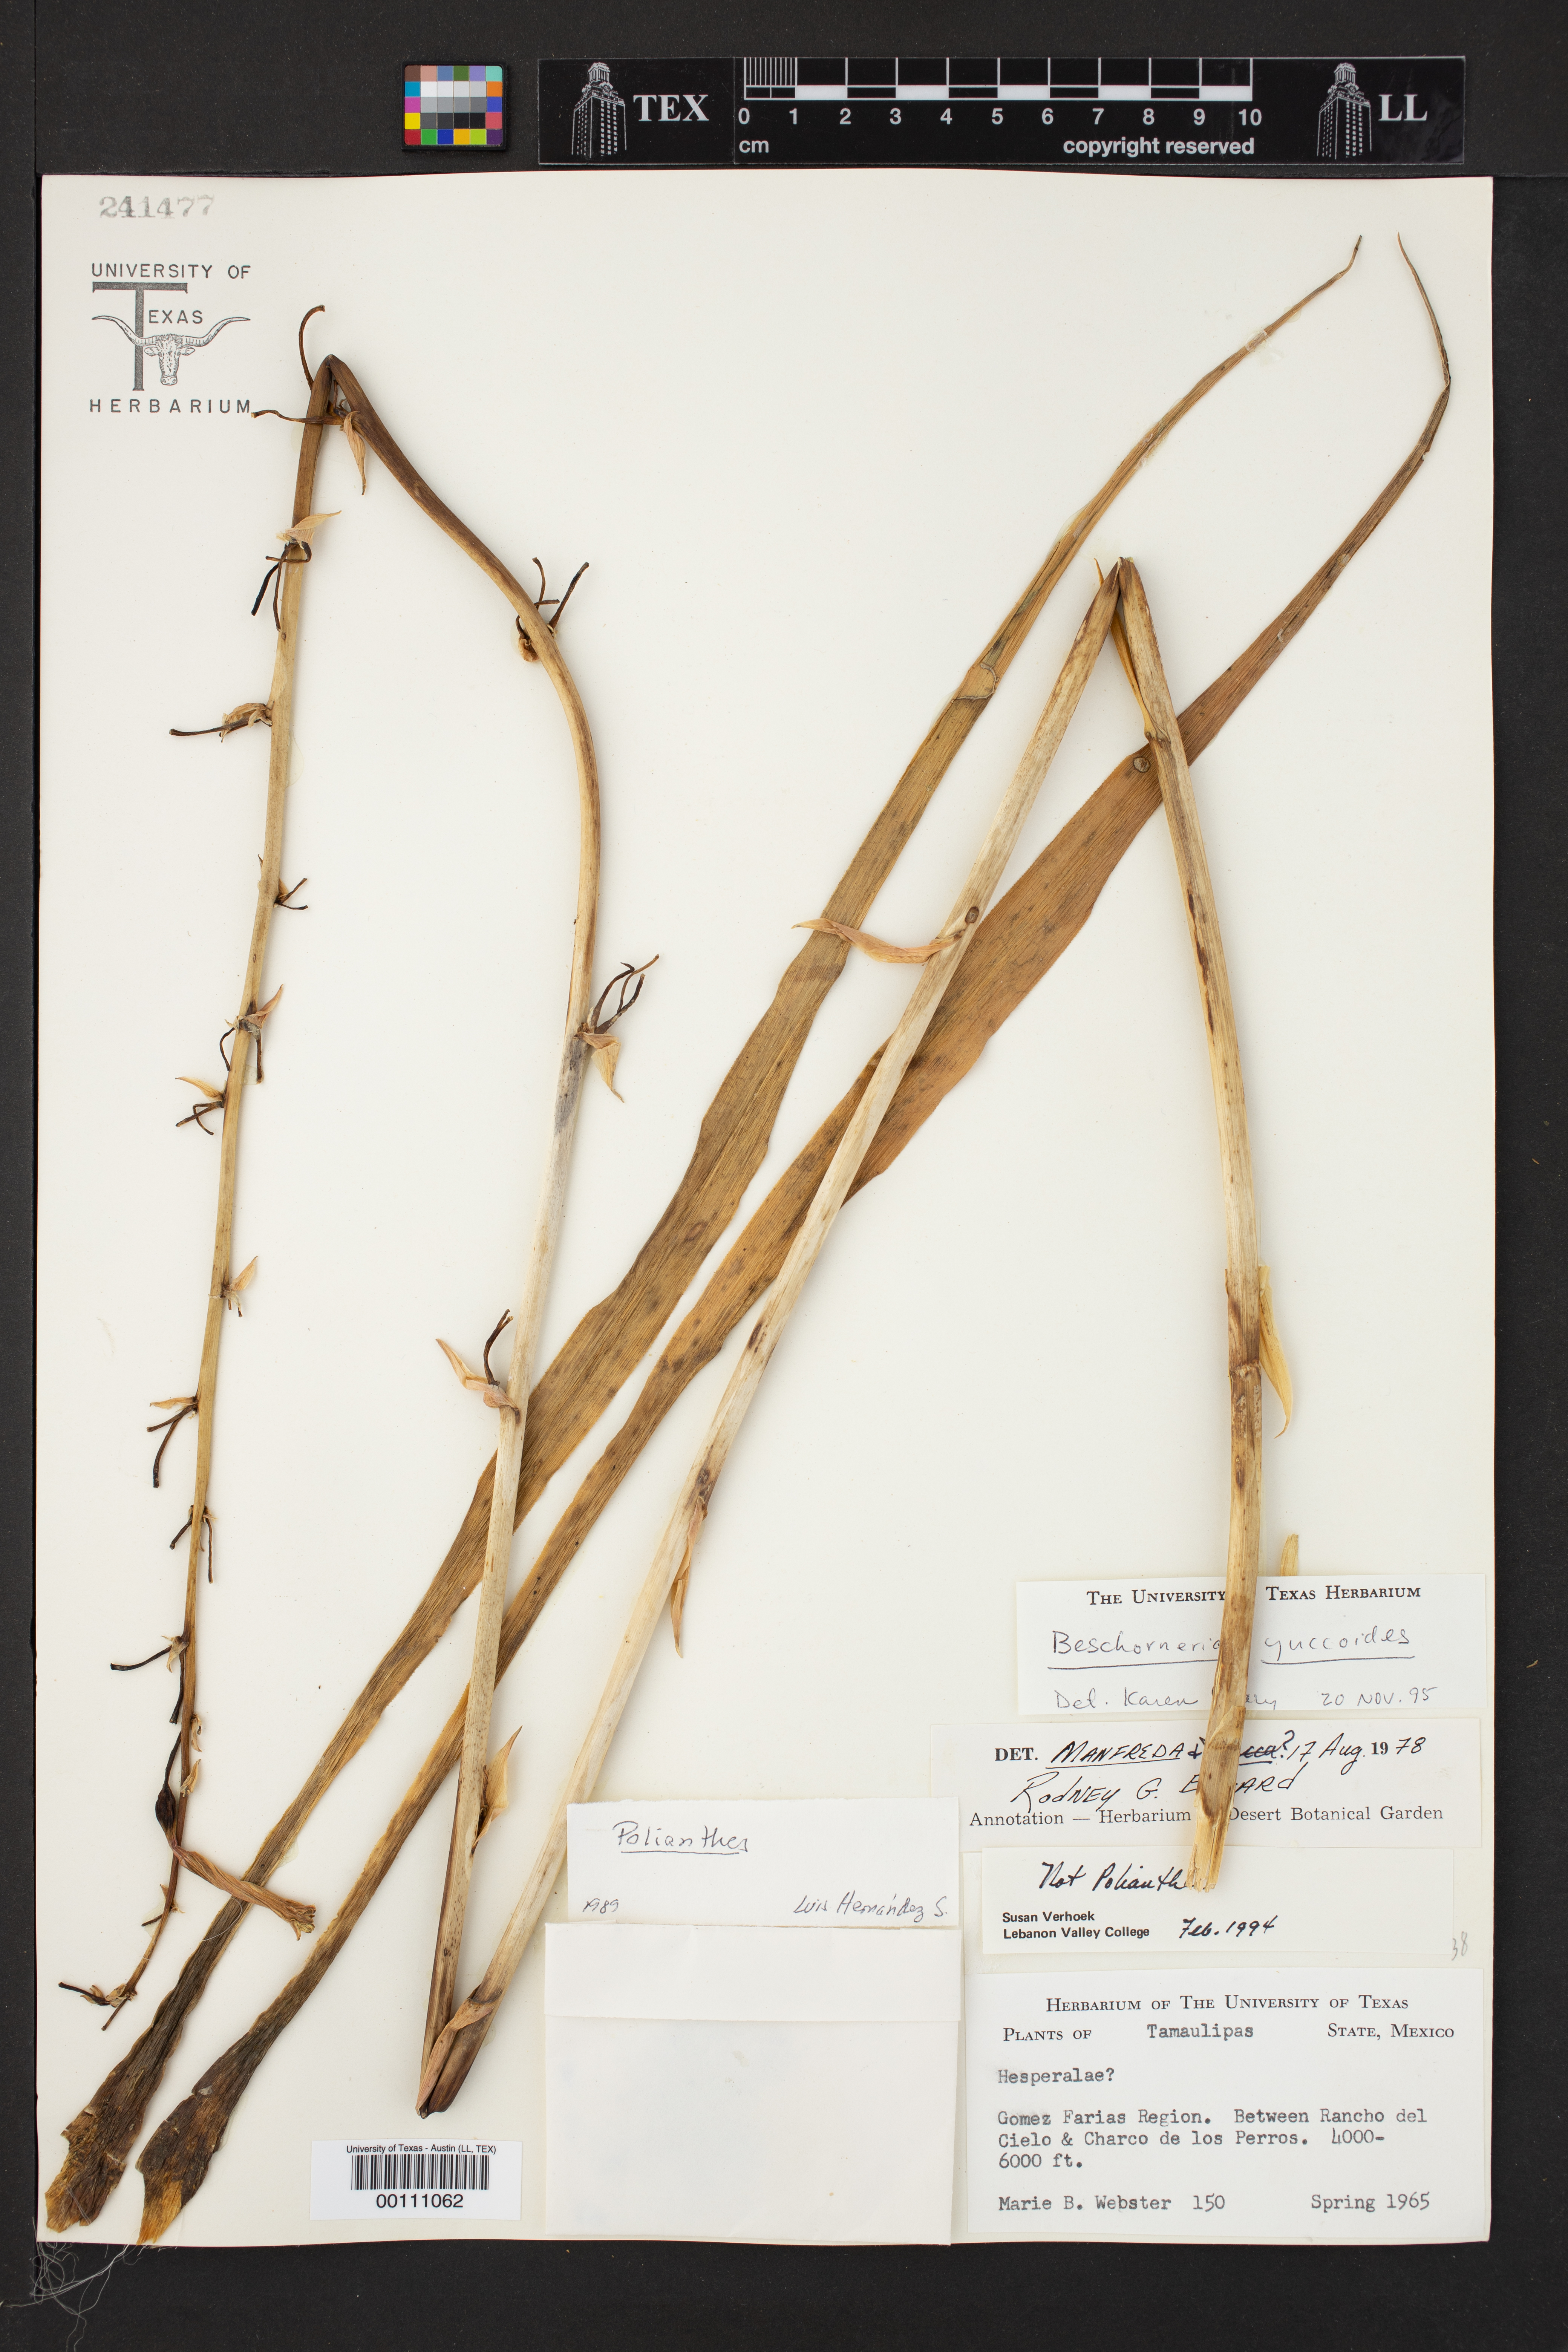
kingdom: Plantae
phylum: Tracheophyta
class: Liliopsida
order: Asparagales
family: Asparagaceae
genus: Beschorneria
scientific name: Beschorneria yuccoides
